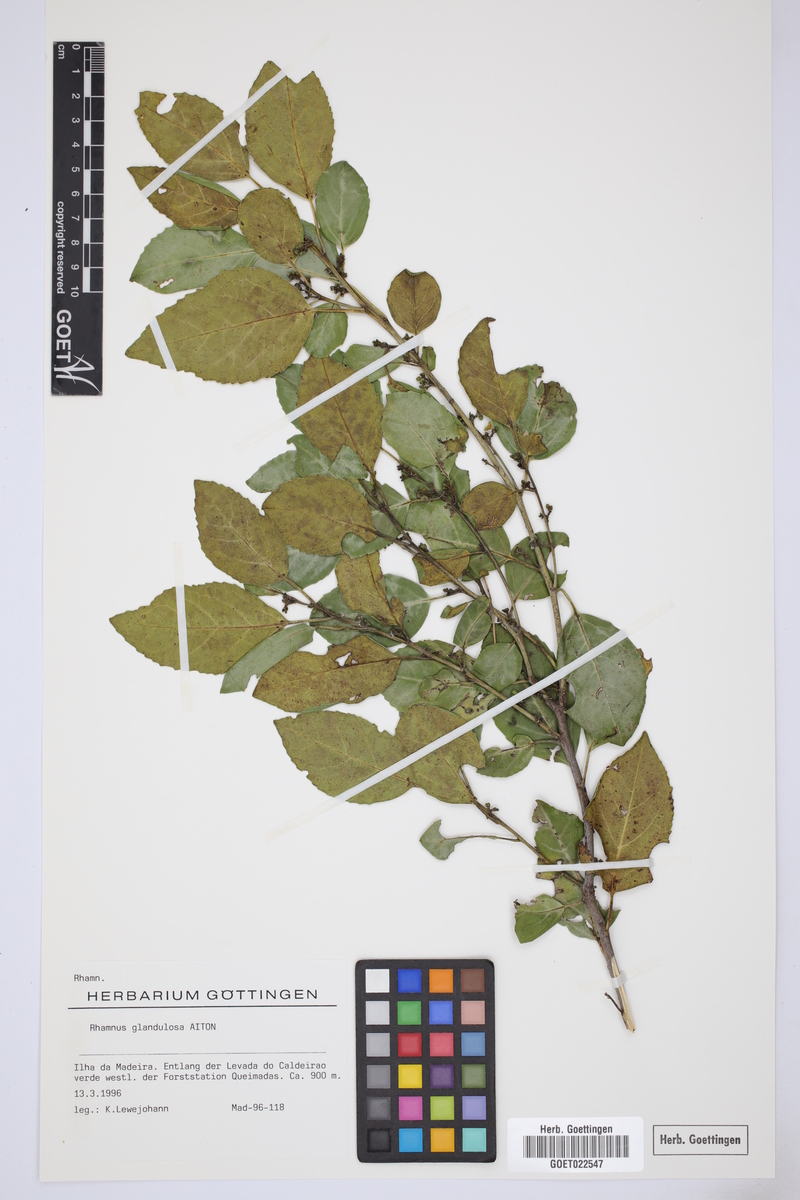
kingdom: Plantae
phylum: Tracheophyta
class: Magnoliopsida
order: Rosales
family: Rhamnaceae
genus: Rhamnus
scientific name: Rhamnus glandulosa
